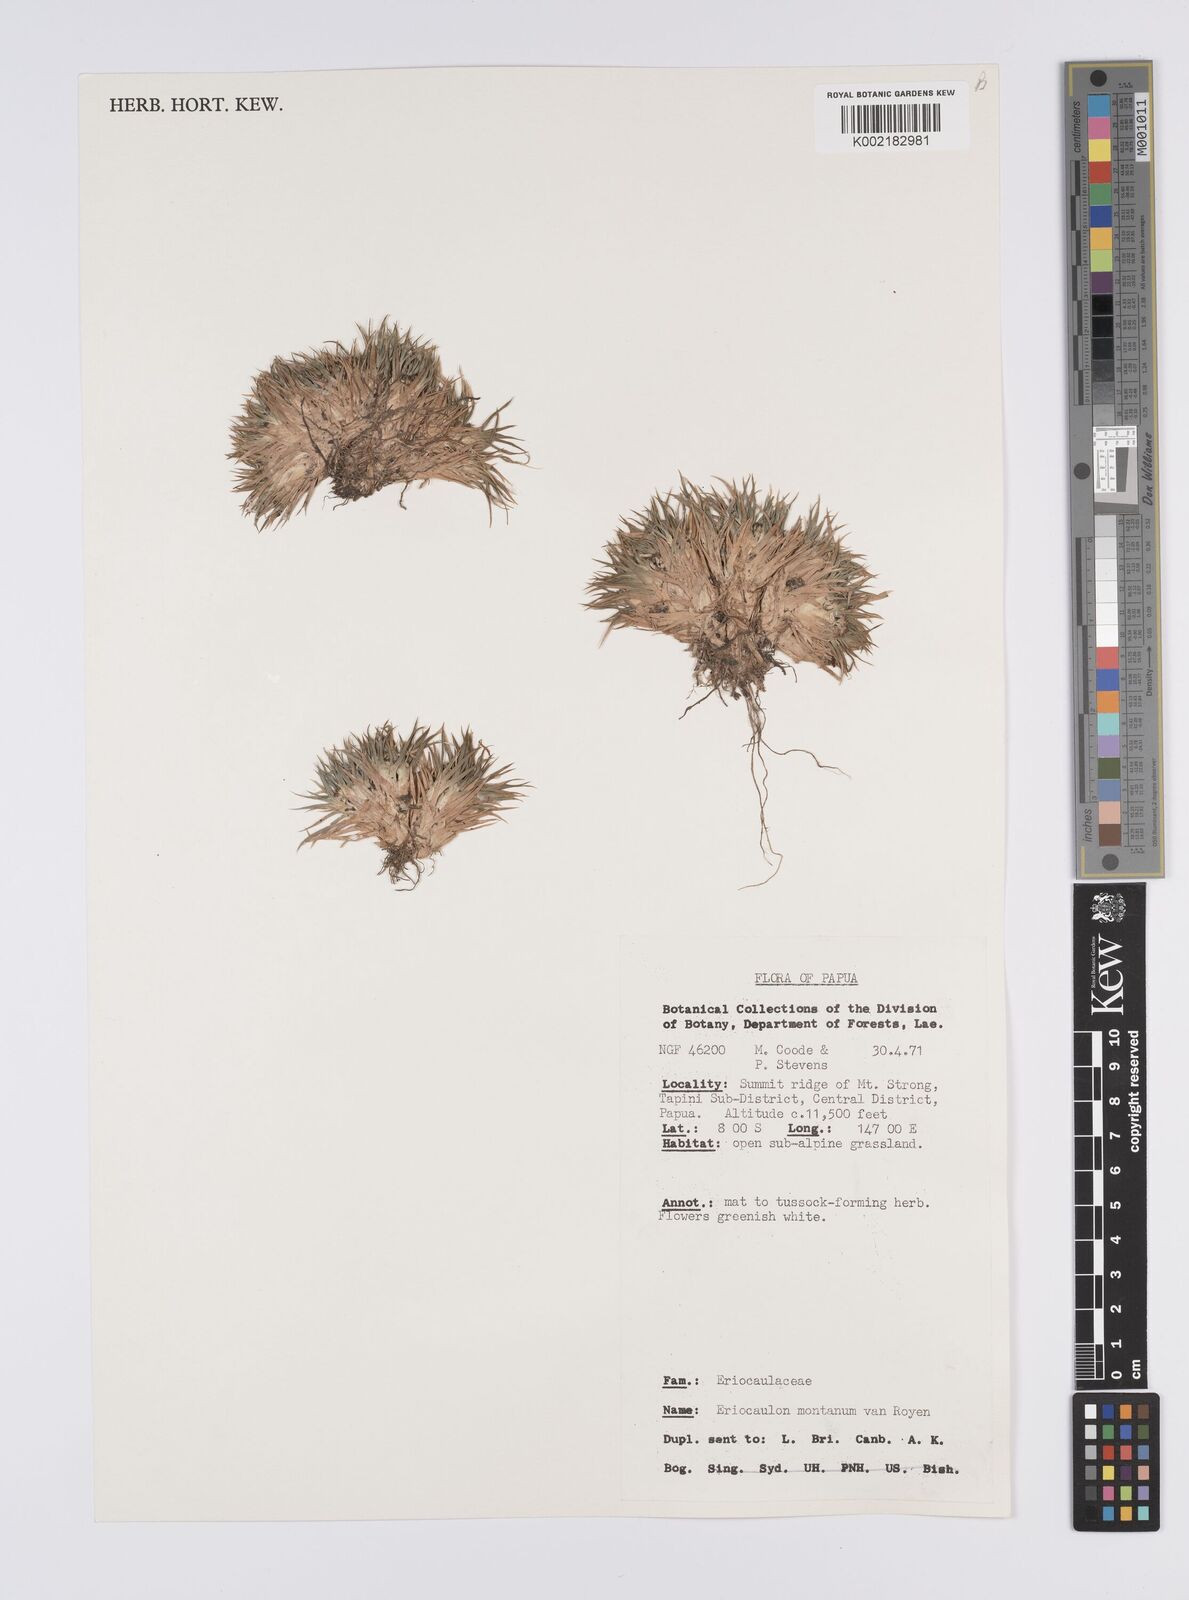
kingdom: Plantae
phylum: Tracheophyta
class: Liliopsida
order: Poales
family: Eriocaulaceae
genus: Eriocaulon
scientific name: Eriocaulon montanum
